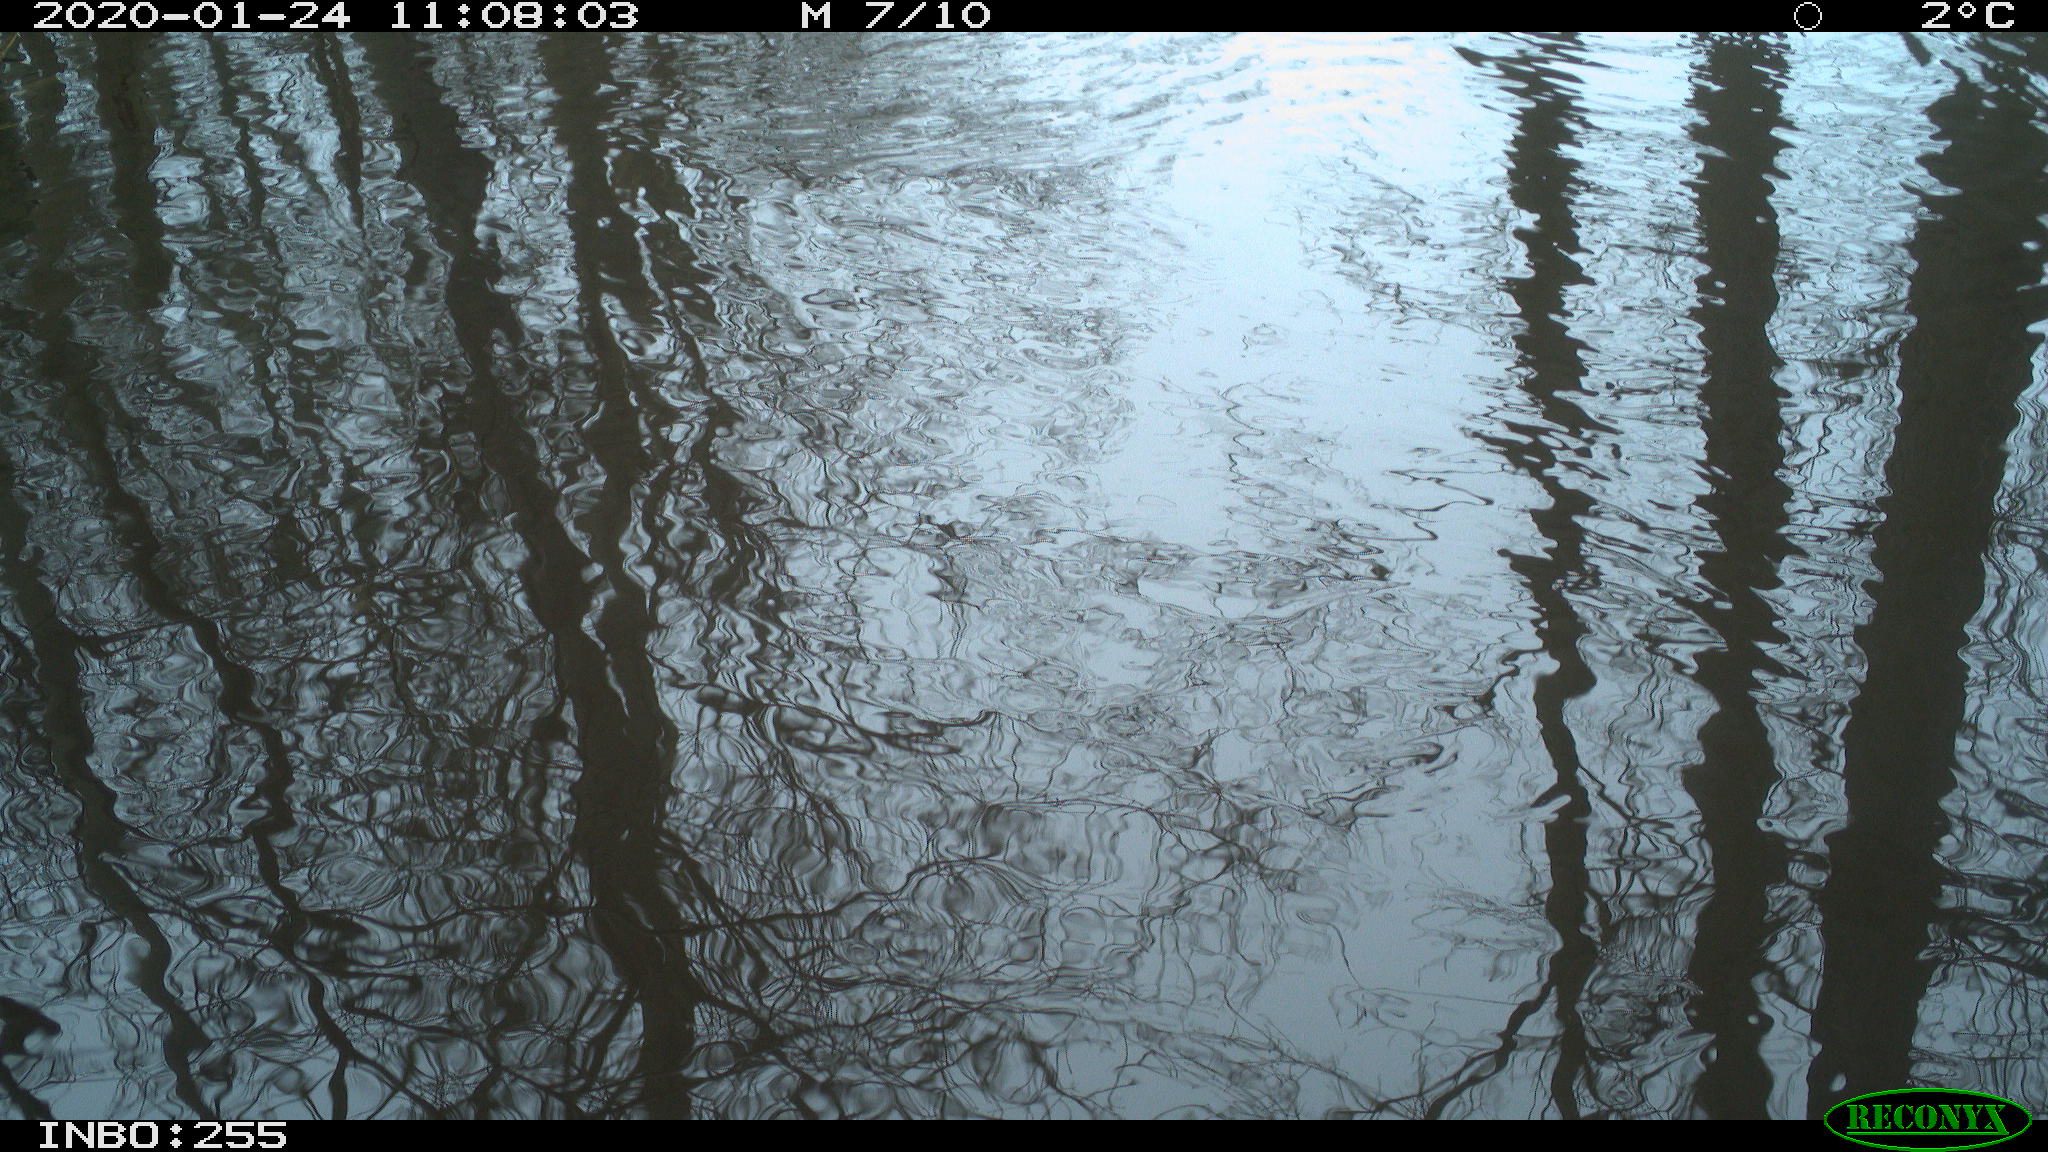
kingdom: Animalia
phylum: Chordata
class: Aves
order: Gruiformes
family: Rallidae
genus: Fulica
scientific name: Fulica atra
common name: Eurasian coot
